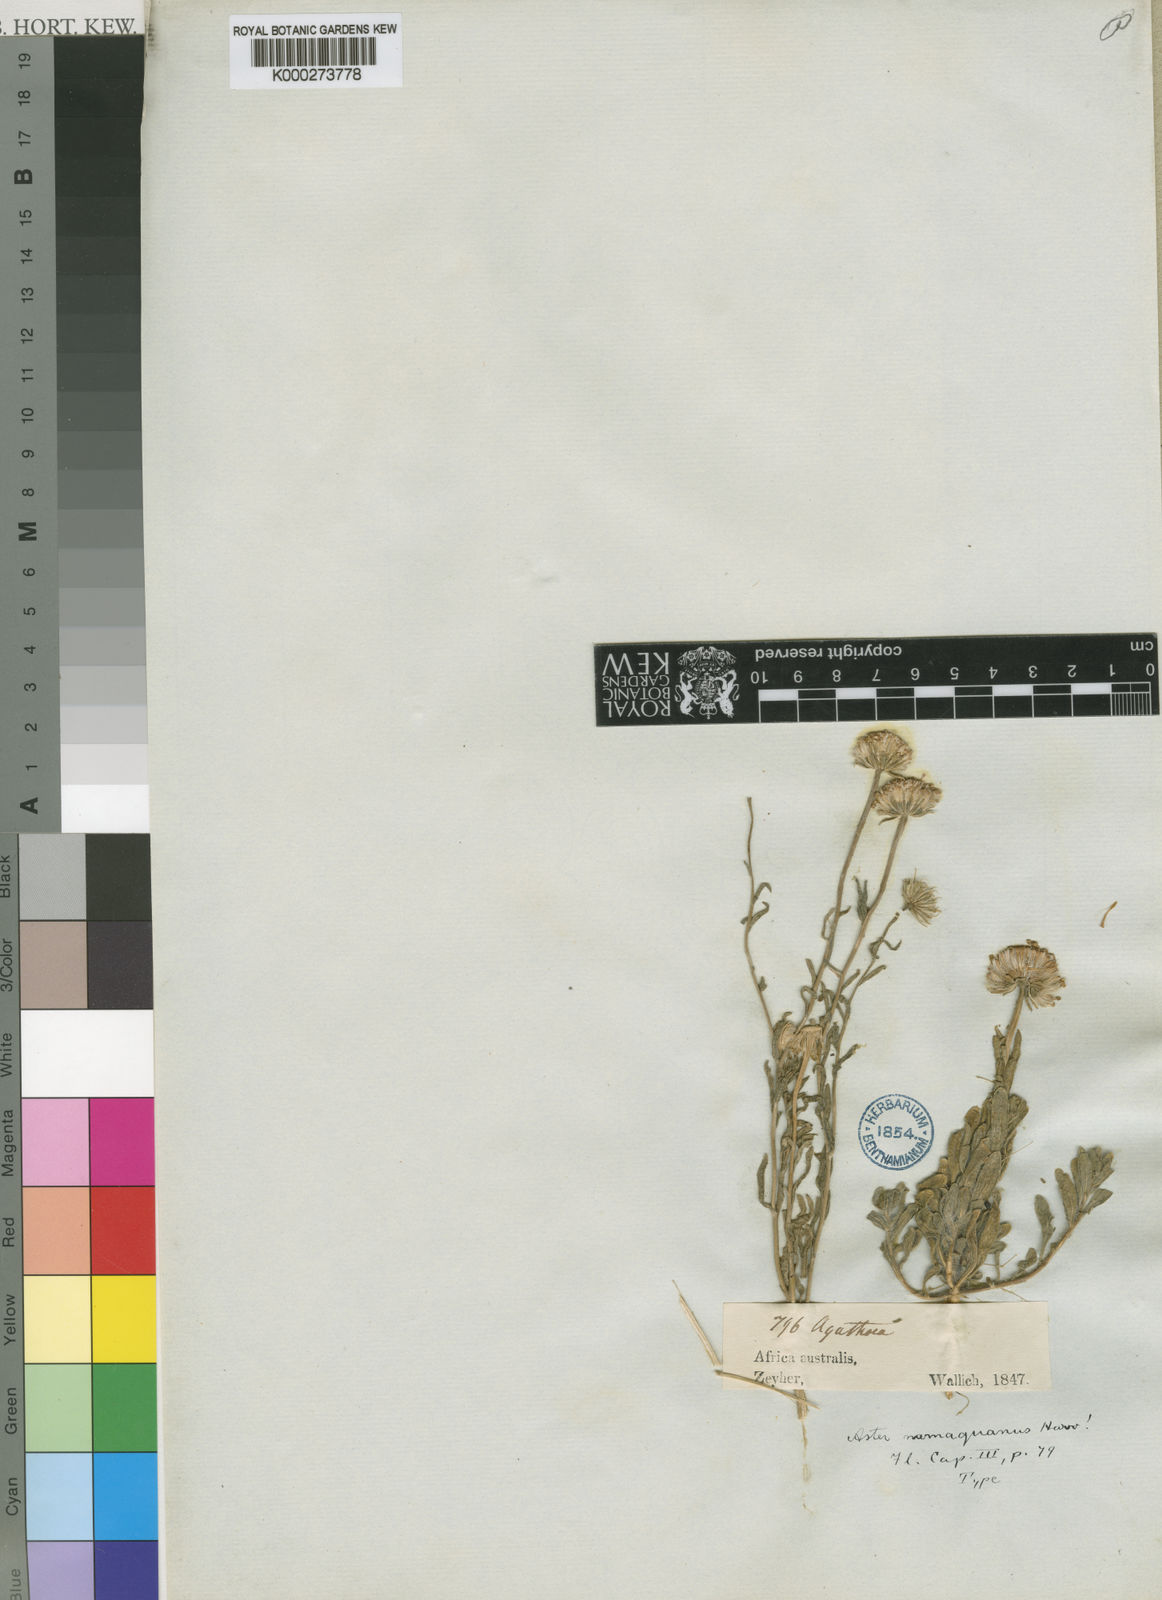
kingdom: Plantae
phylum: Tracheophyta
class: Magnoliopsida
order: Asterales
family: Asteraceae
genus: Felicia
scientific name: Felicia namaquana
